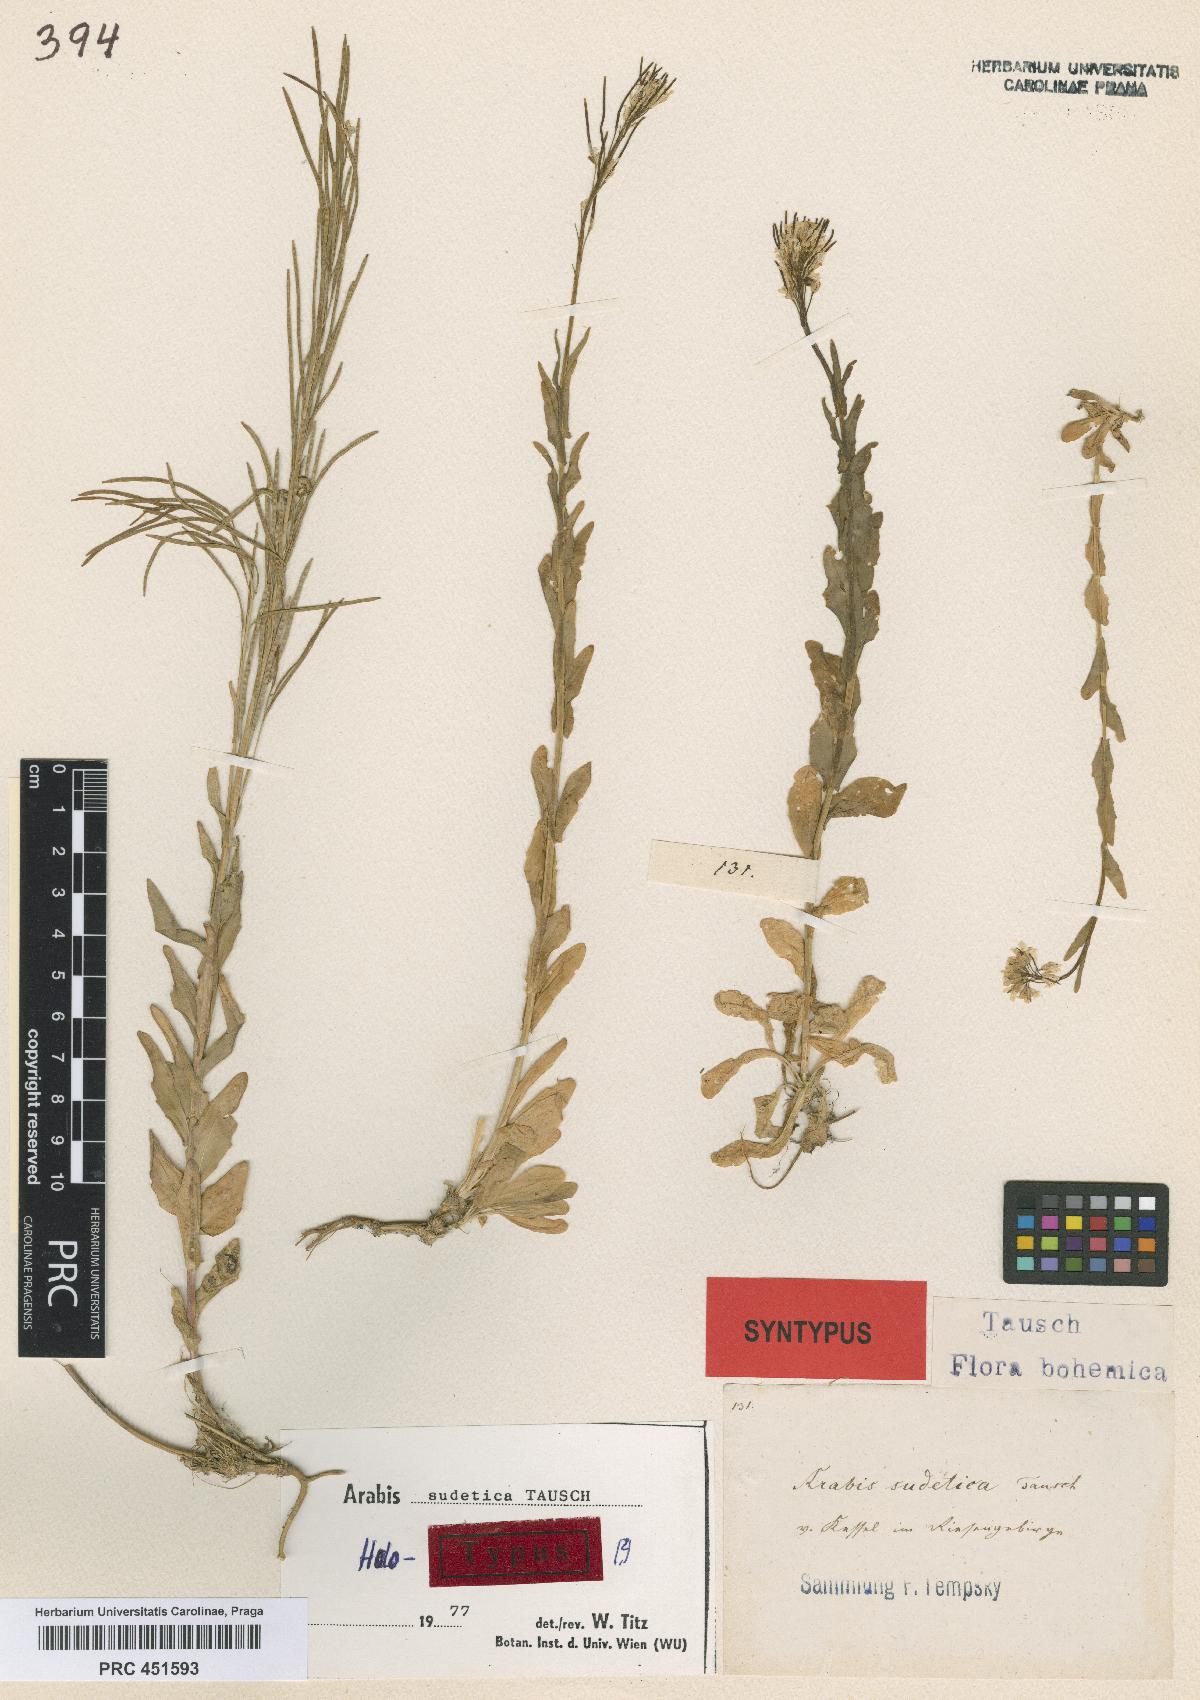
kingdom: Plantae
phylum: Tracheophyta
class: Magnoliopsida
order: Brassicales
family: Brassicaceae
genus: Arabis
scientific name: Arabis sudetica
